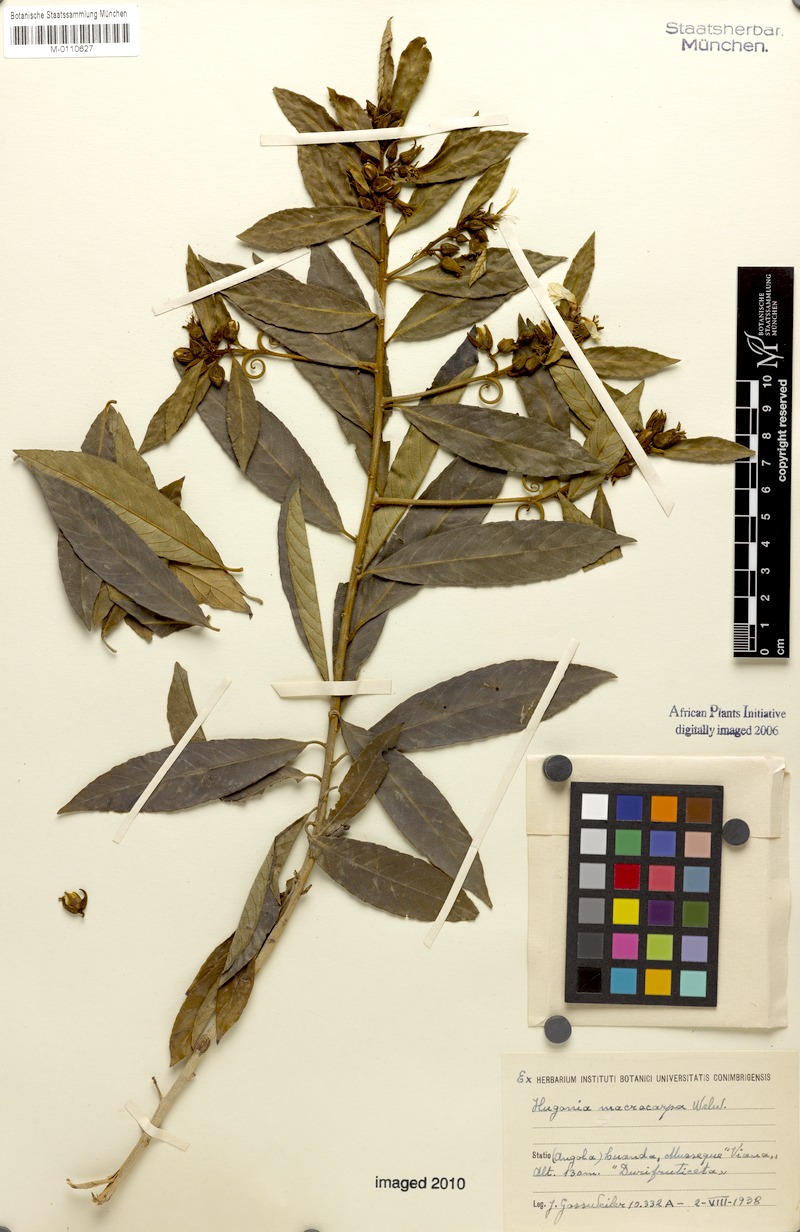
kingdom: Plantae
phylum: Tracheophyta
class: Magnoliopsida
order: Malpighiales
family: Linaceae
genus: Hugonia
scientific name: Hugonia macrocarpa
